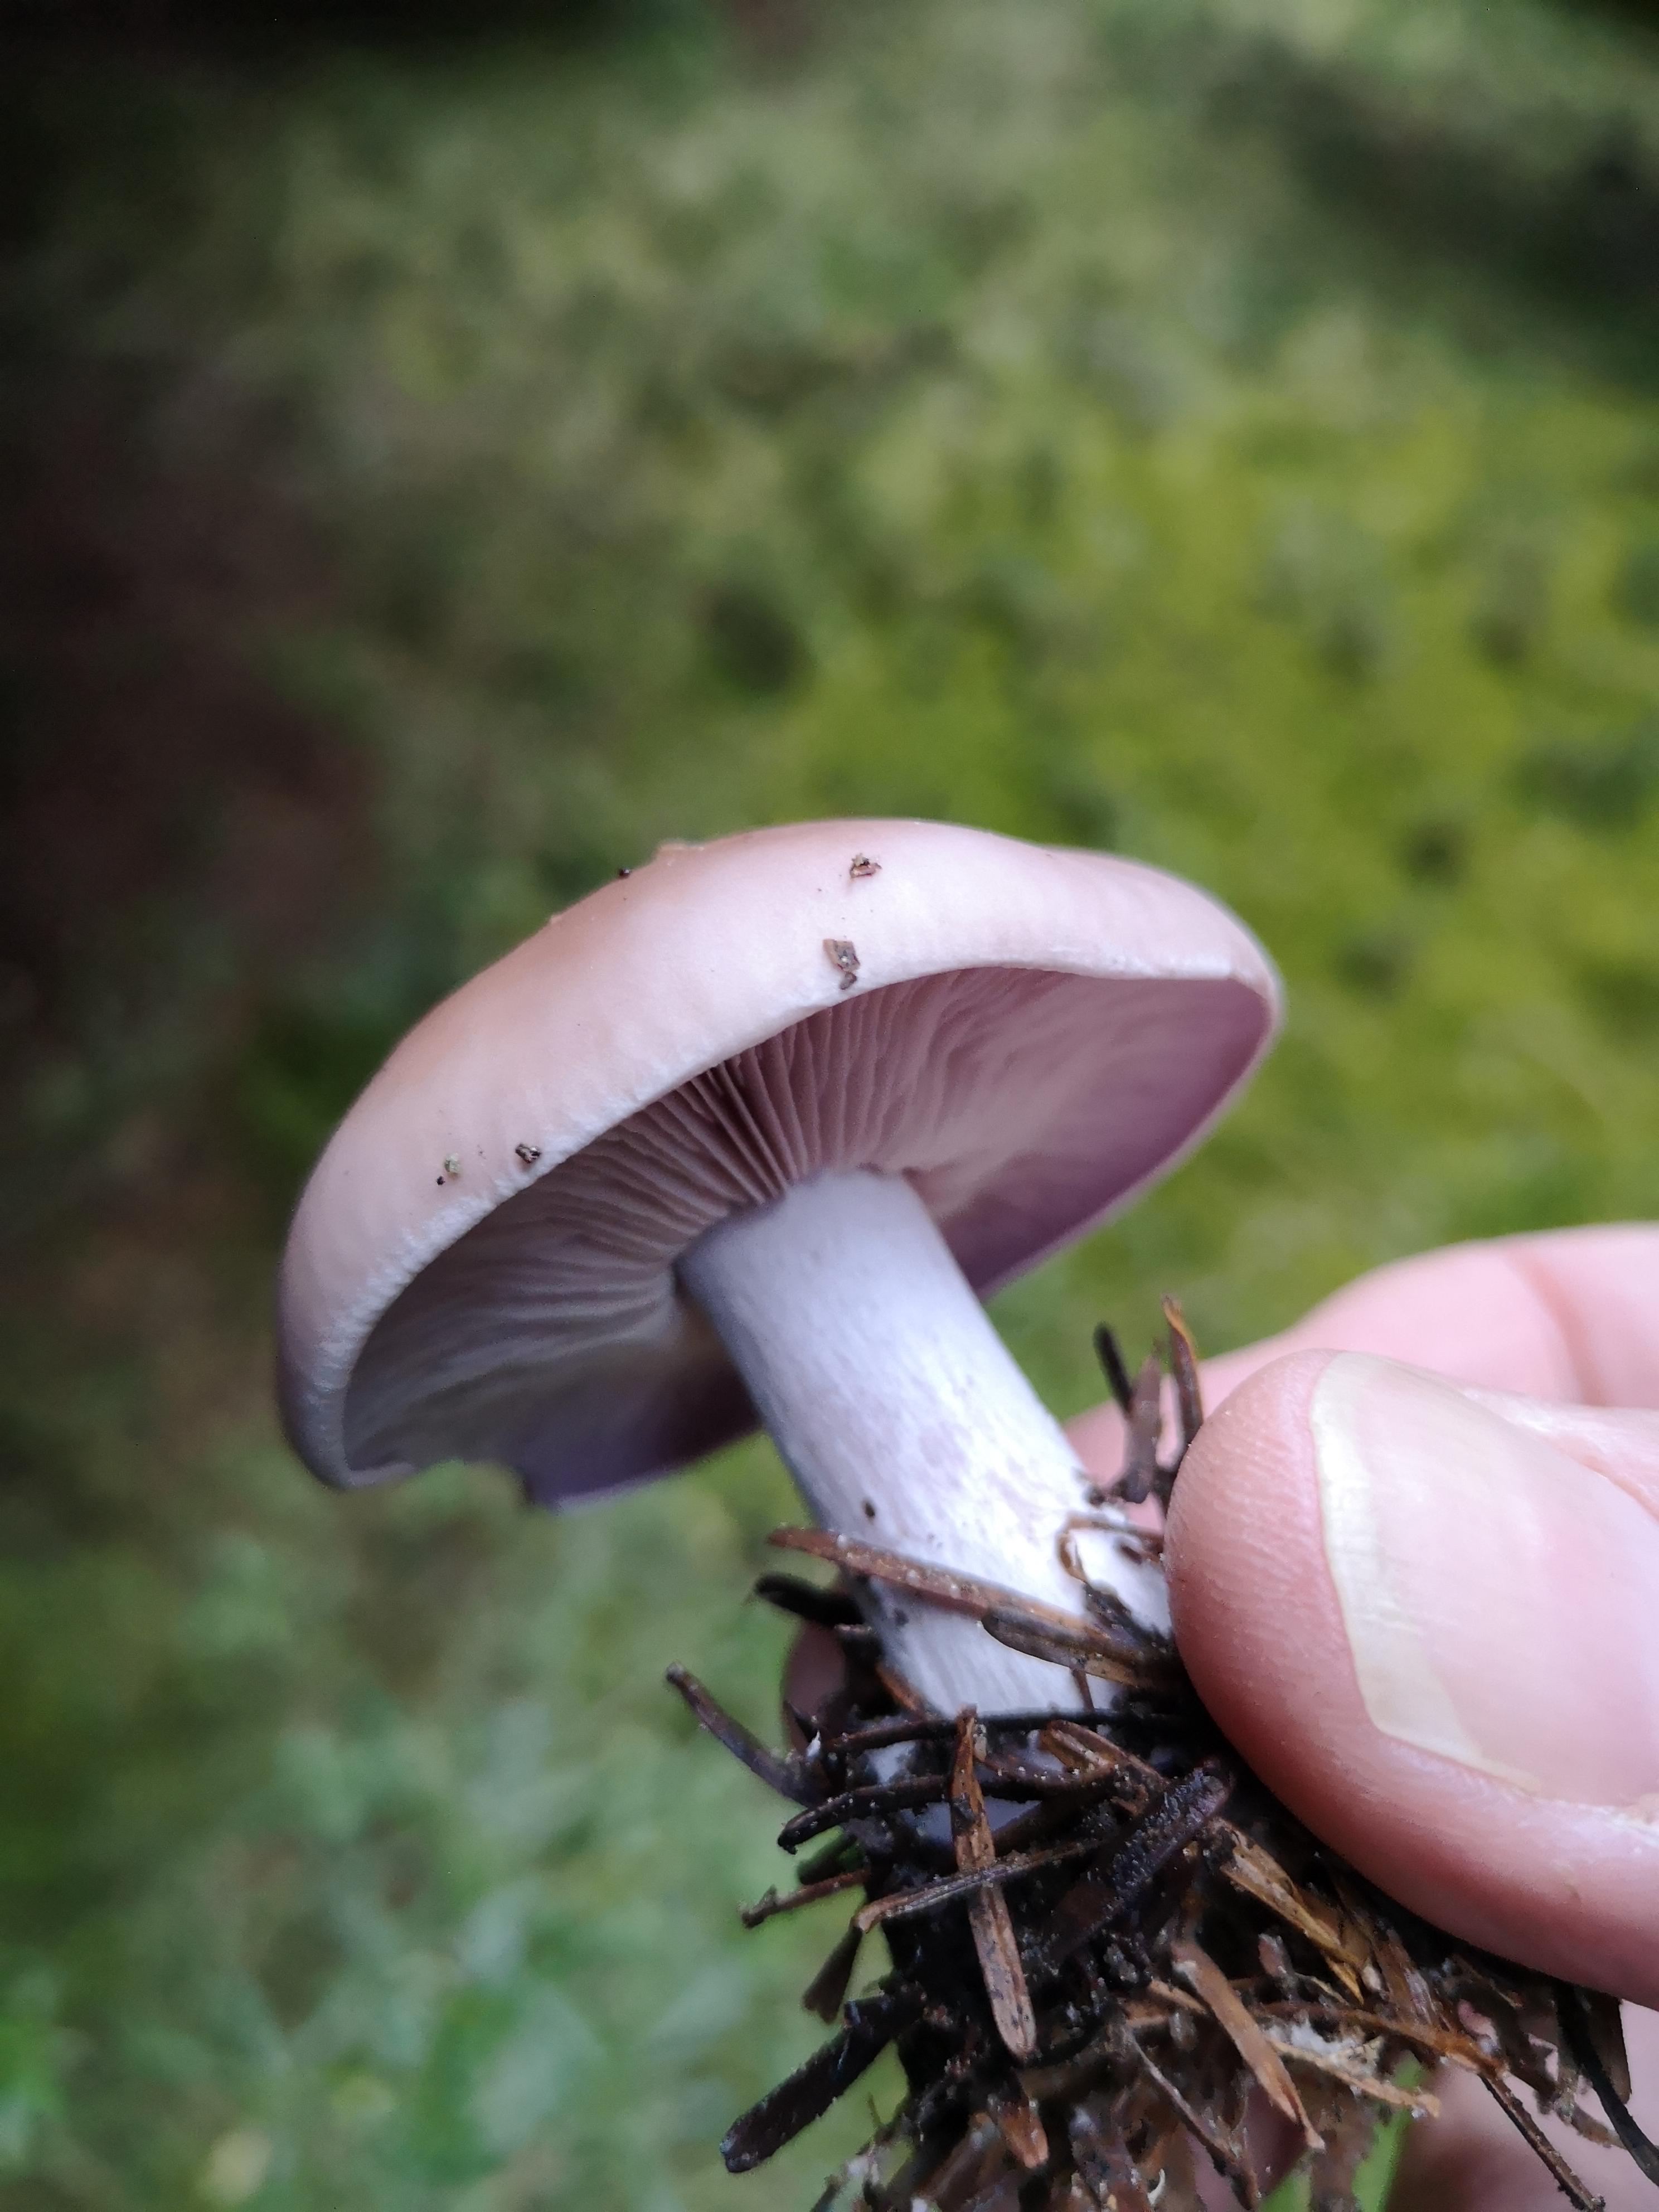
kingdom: Fungi
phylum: Basidiomycota
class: Agaricomycetes
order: Agaricales
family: Tricholomataceae
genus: Lepista
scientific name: Lepista nuda
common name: violet hekseringshat
